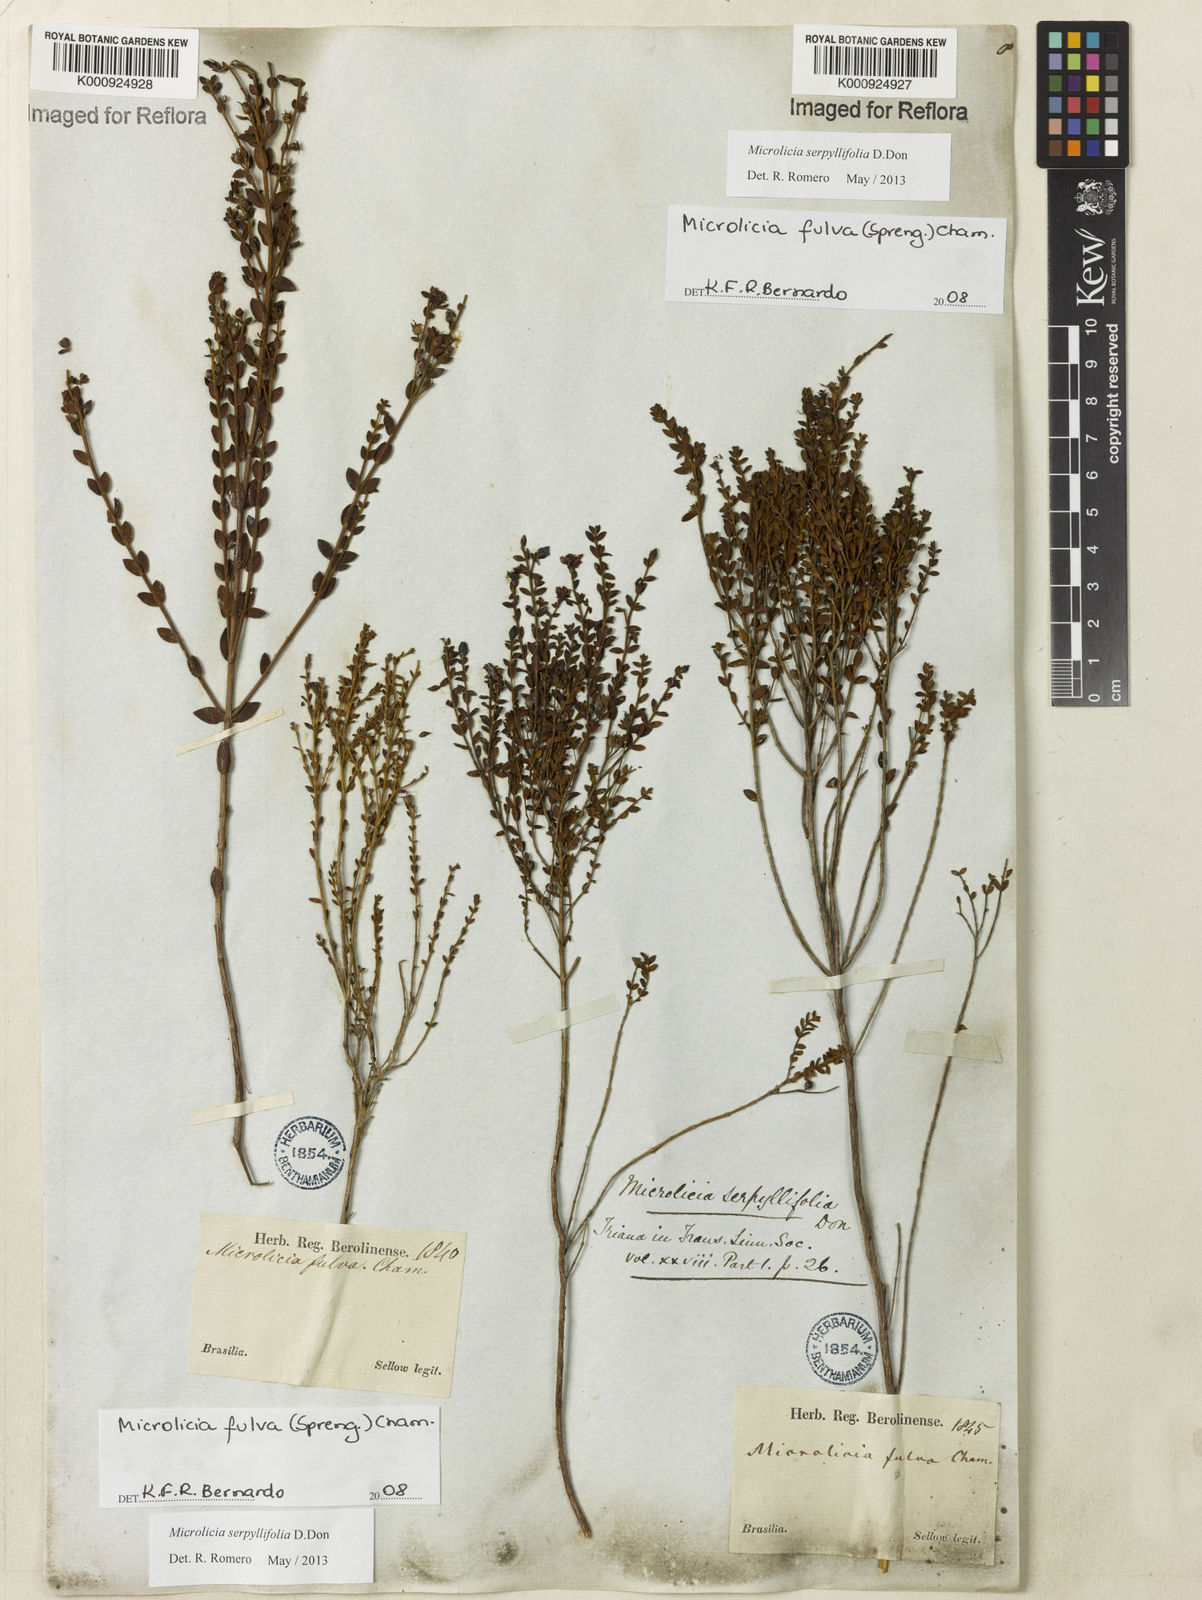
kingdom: Plantae
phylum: Tracheophyta
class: Magnoliopsida
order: Myrtales
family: Melastomataceae
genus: Microlicia
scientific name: Microlicia fulva
